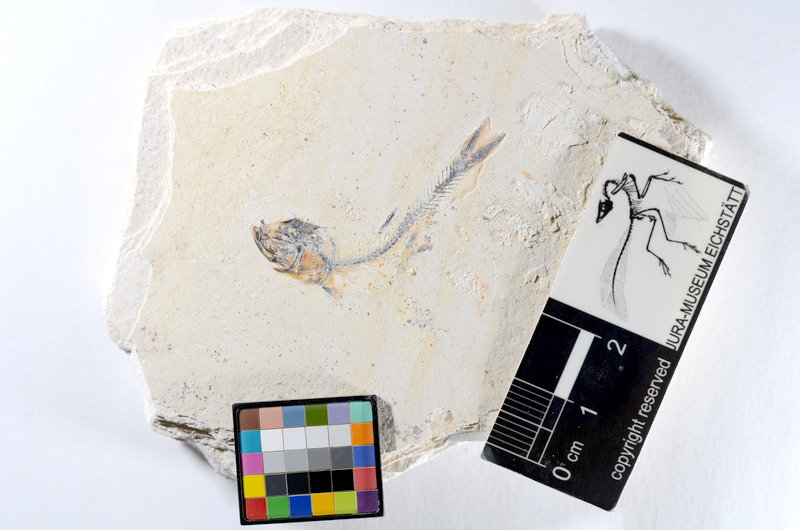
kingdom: Animalia
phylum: Chordata
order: Salmoniformes
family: Orthogonikleithridae
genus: Orthogonikleithrus
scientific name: Orthogonikleithrus hoelli
